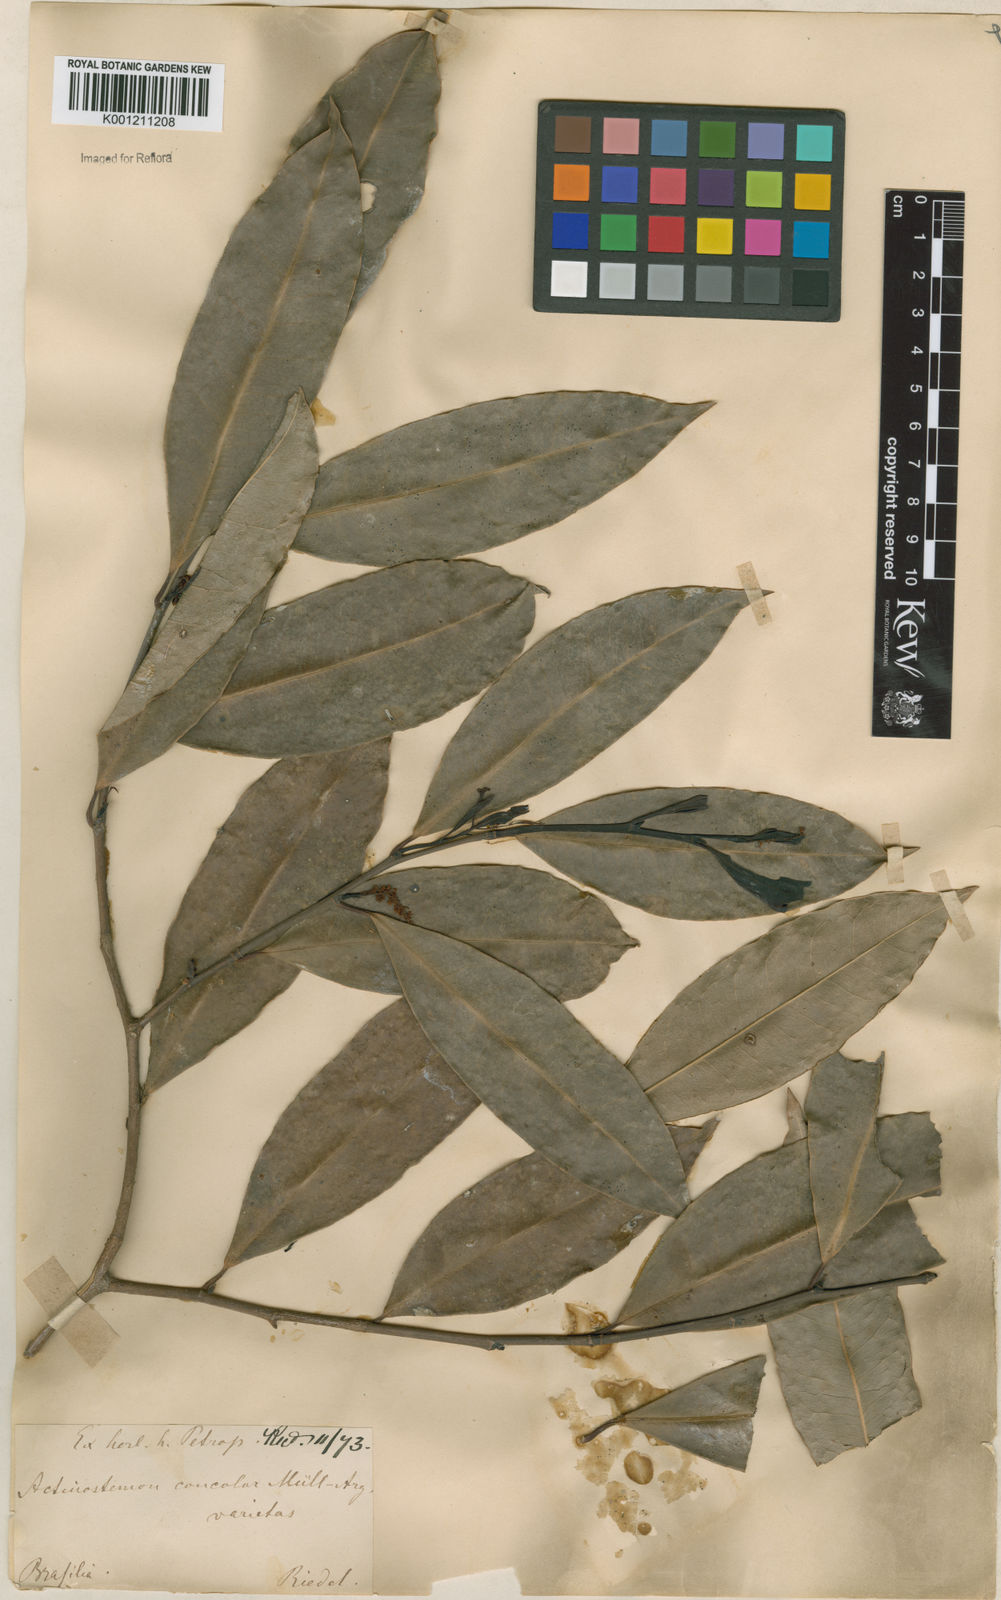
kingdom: Plantae
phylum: Tracheophyta
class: Magnoliopsida
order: Malpighiales
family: Euphorbiaceae
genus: Actinostemon
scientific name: Actinostemon
